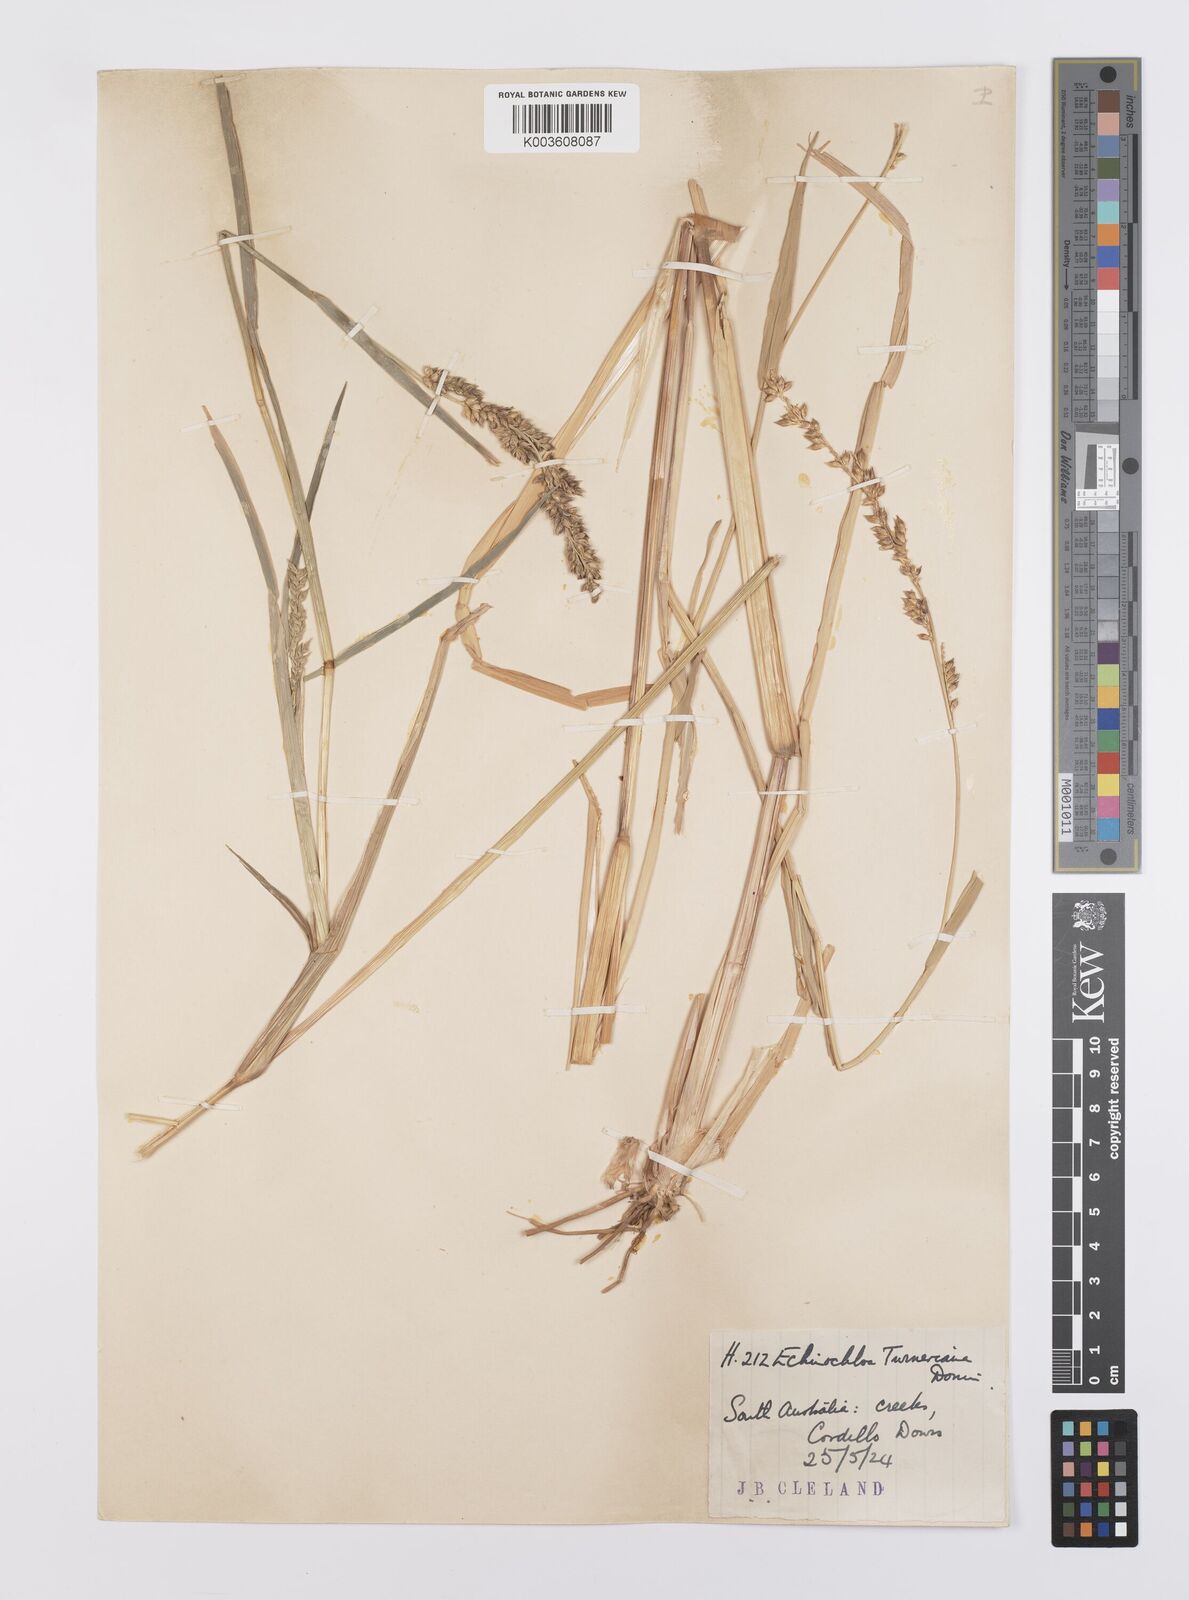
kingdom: Plantae
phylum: Tracheophyta
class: Liliopsida
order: Poales
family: Poaceae
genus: Echinochloa
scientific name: Echinochloa turneriana
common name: Channel millet
